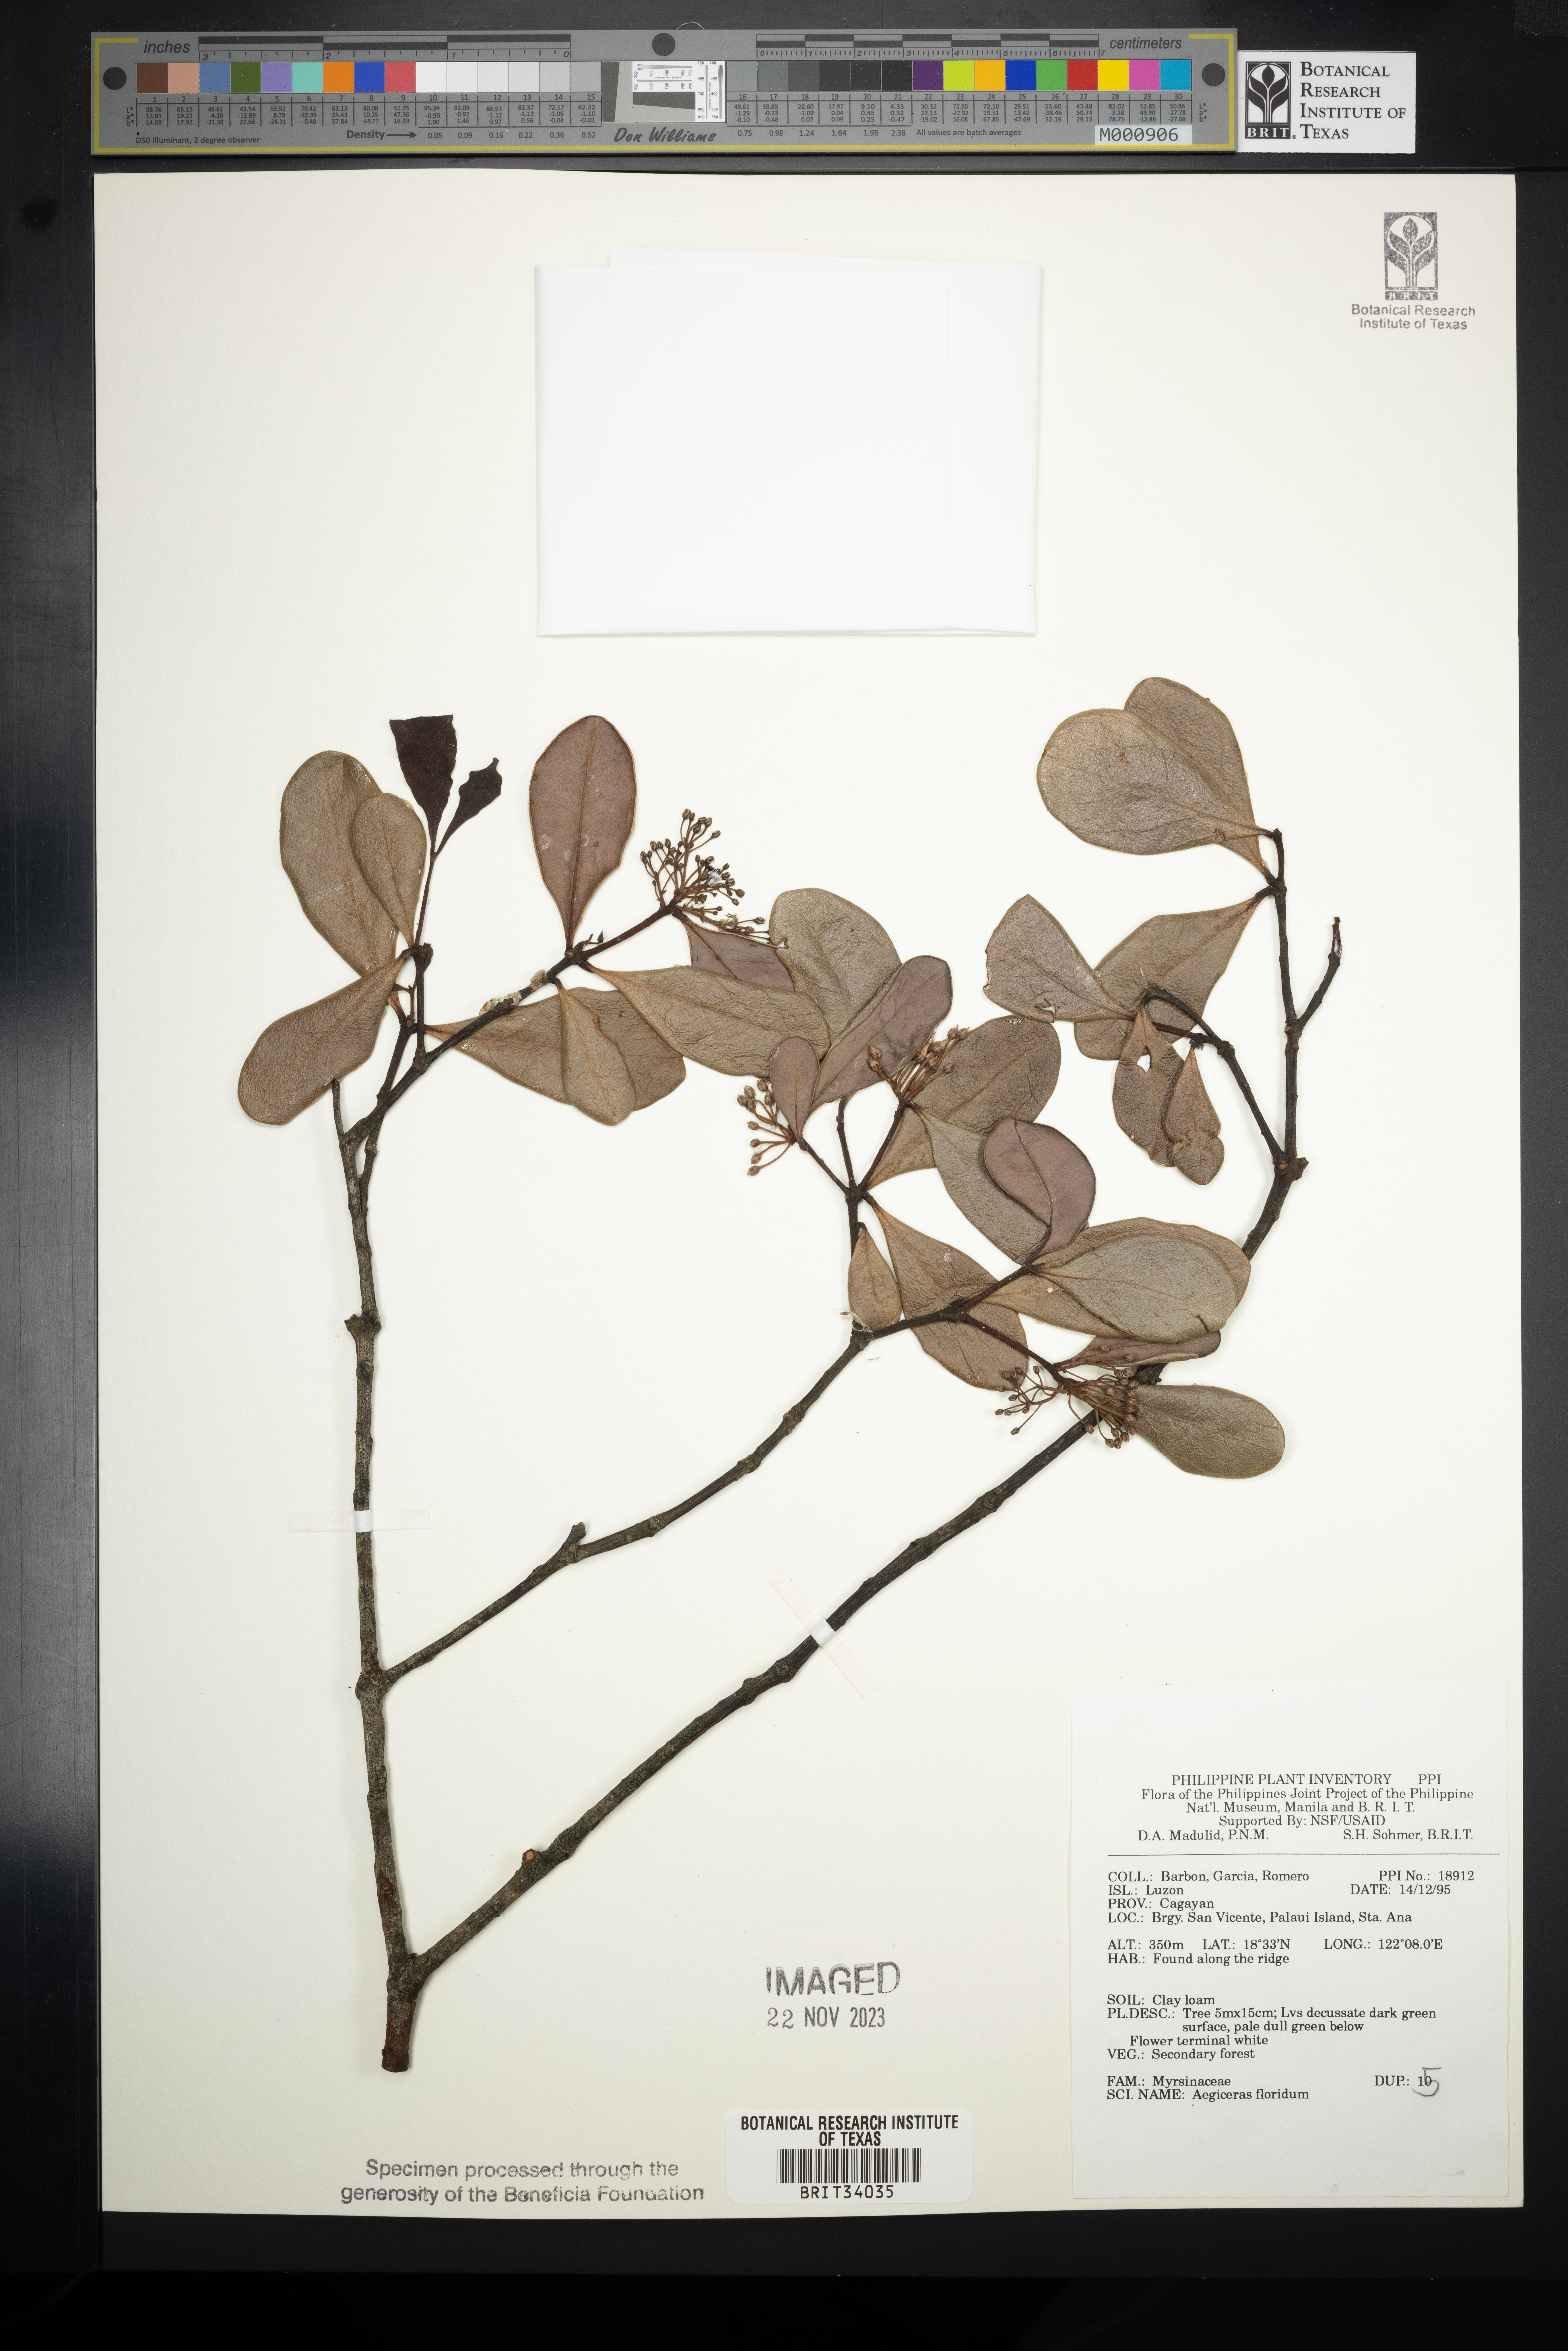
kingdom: Plantae
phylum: Tracheophyta
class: Magnoliopsida
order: Ericales
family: Primulaceae
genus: Aegiceras
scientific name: Aegiceras floridum
